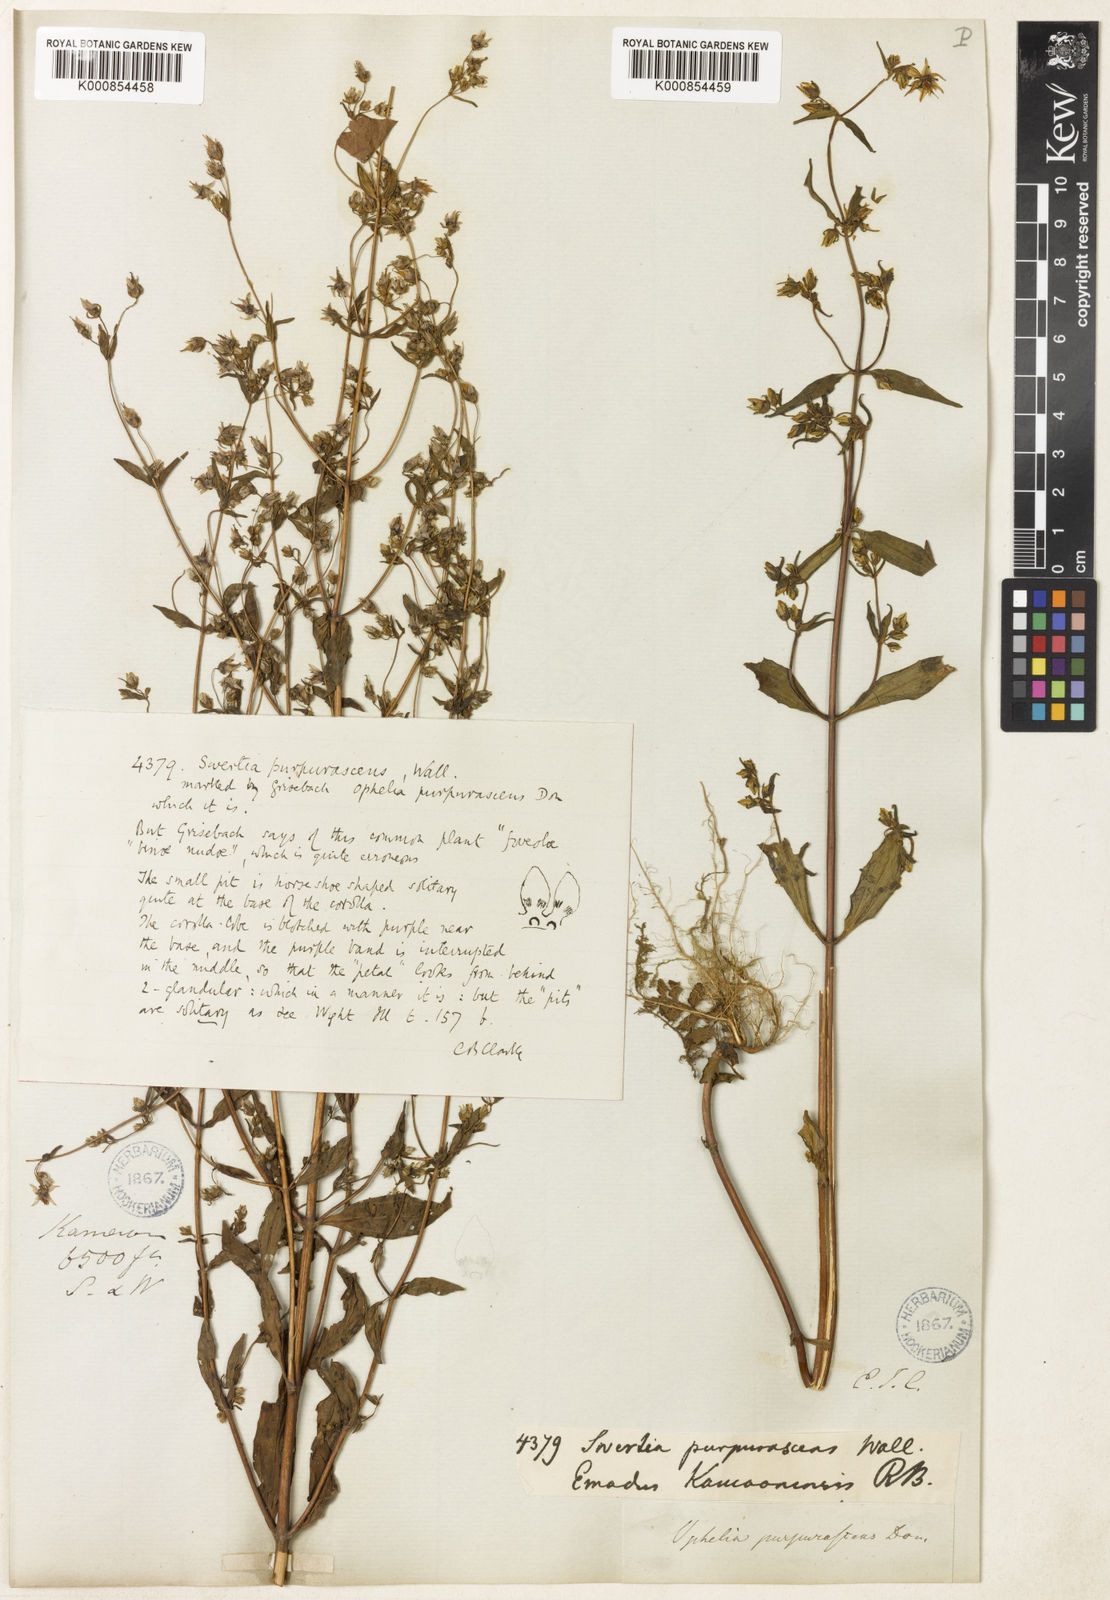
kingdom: Plantae
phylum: Tracheophyta
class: Magnoliopsida
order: Gentianales
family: Gentianaceae
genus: Swertia
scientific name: Swertia
